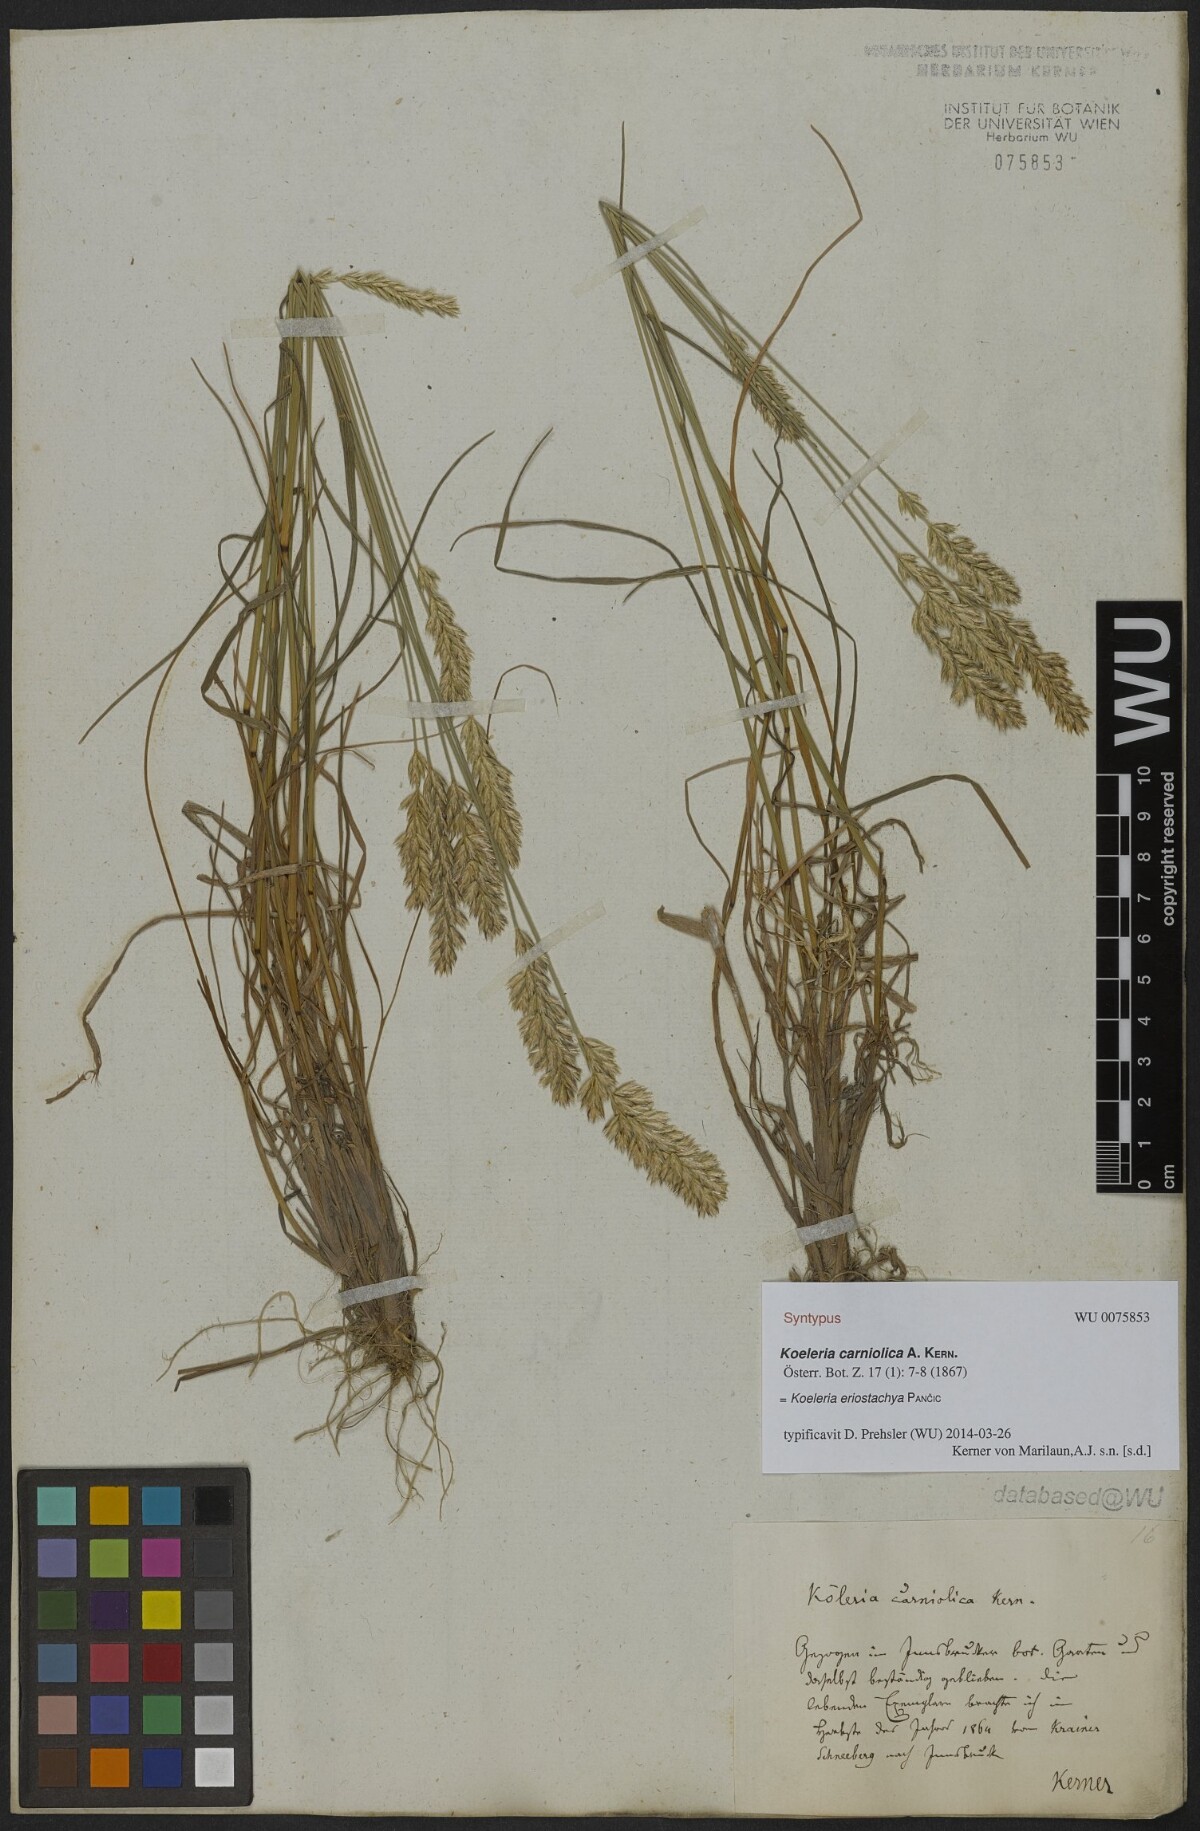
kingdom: Plantae
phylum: Tracheophyta
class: Liliopsida
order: Poales
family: Poaceae
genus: Koeleria
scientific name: Koeleria eriostachya
